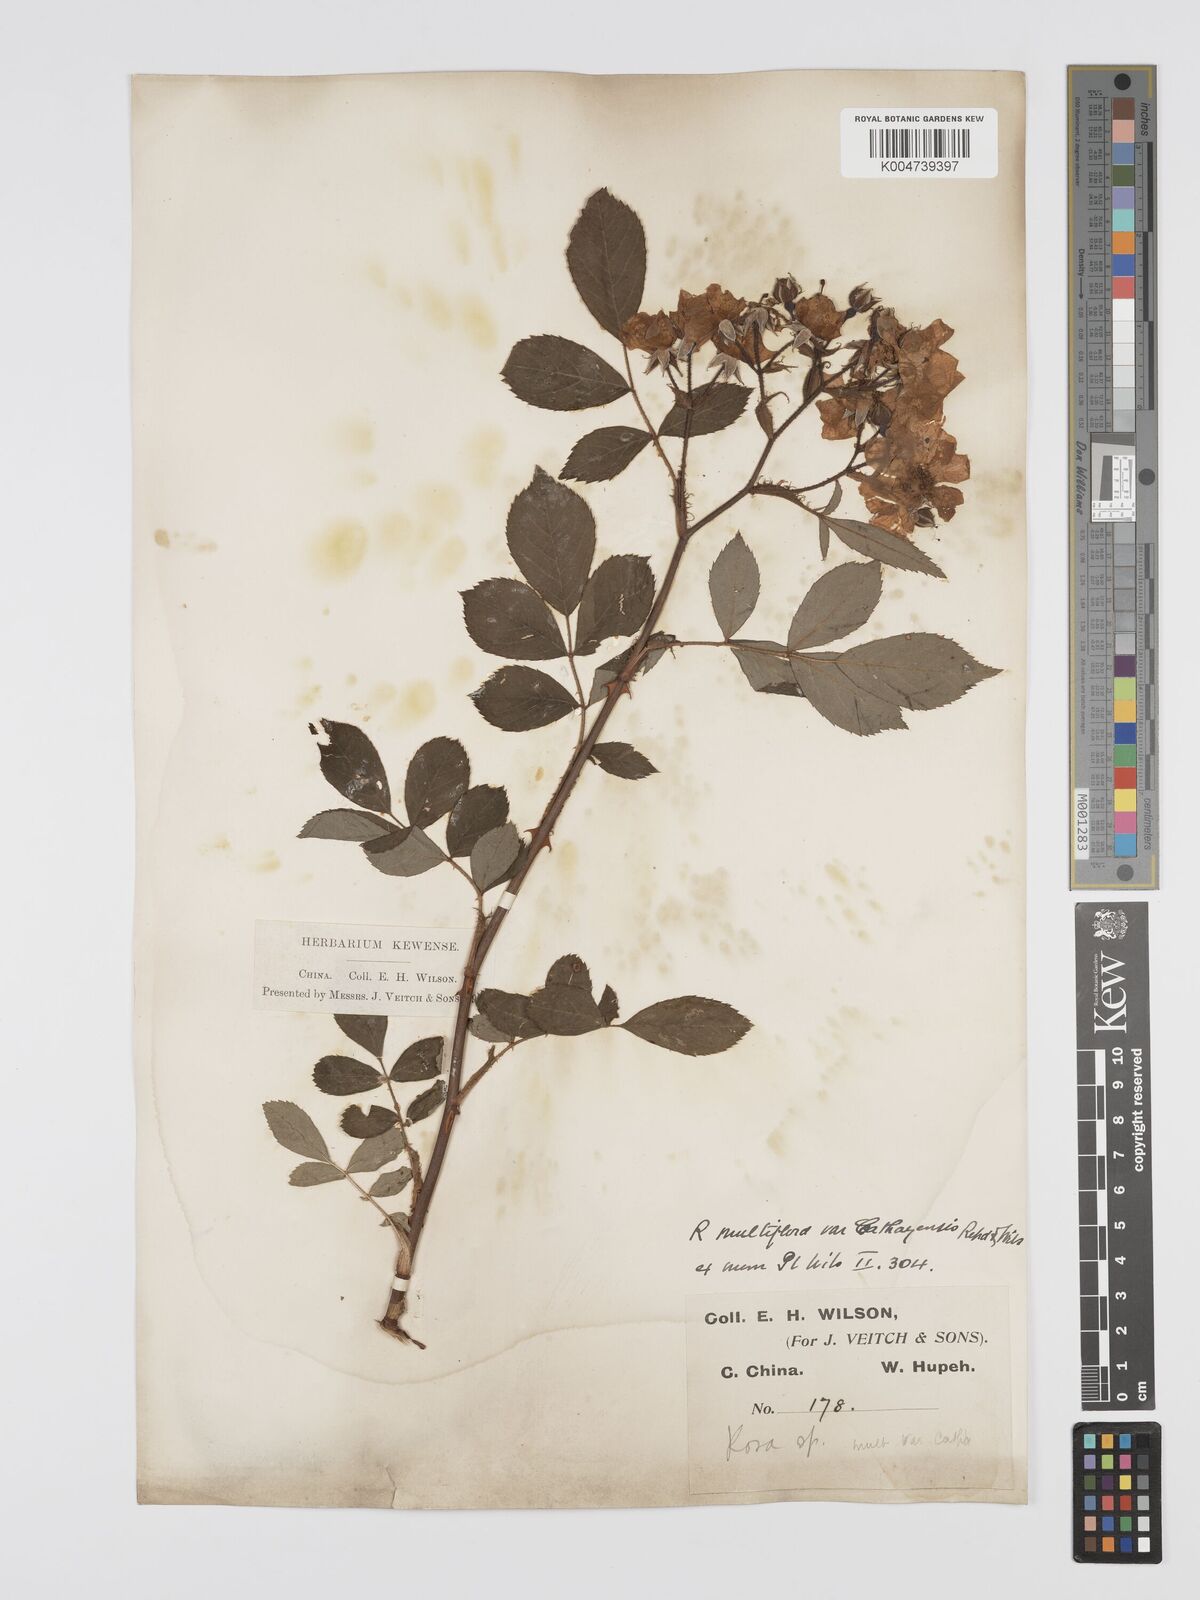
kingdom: Plantae
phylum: Tracheophyta
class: Magnoliopsida
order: Rosales
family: Rosaceae
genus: Rosa
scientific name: Rosa
